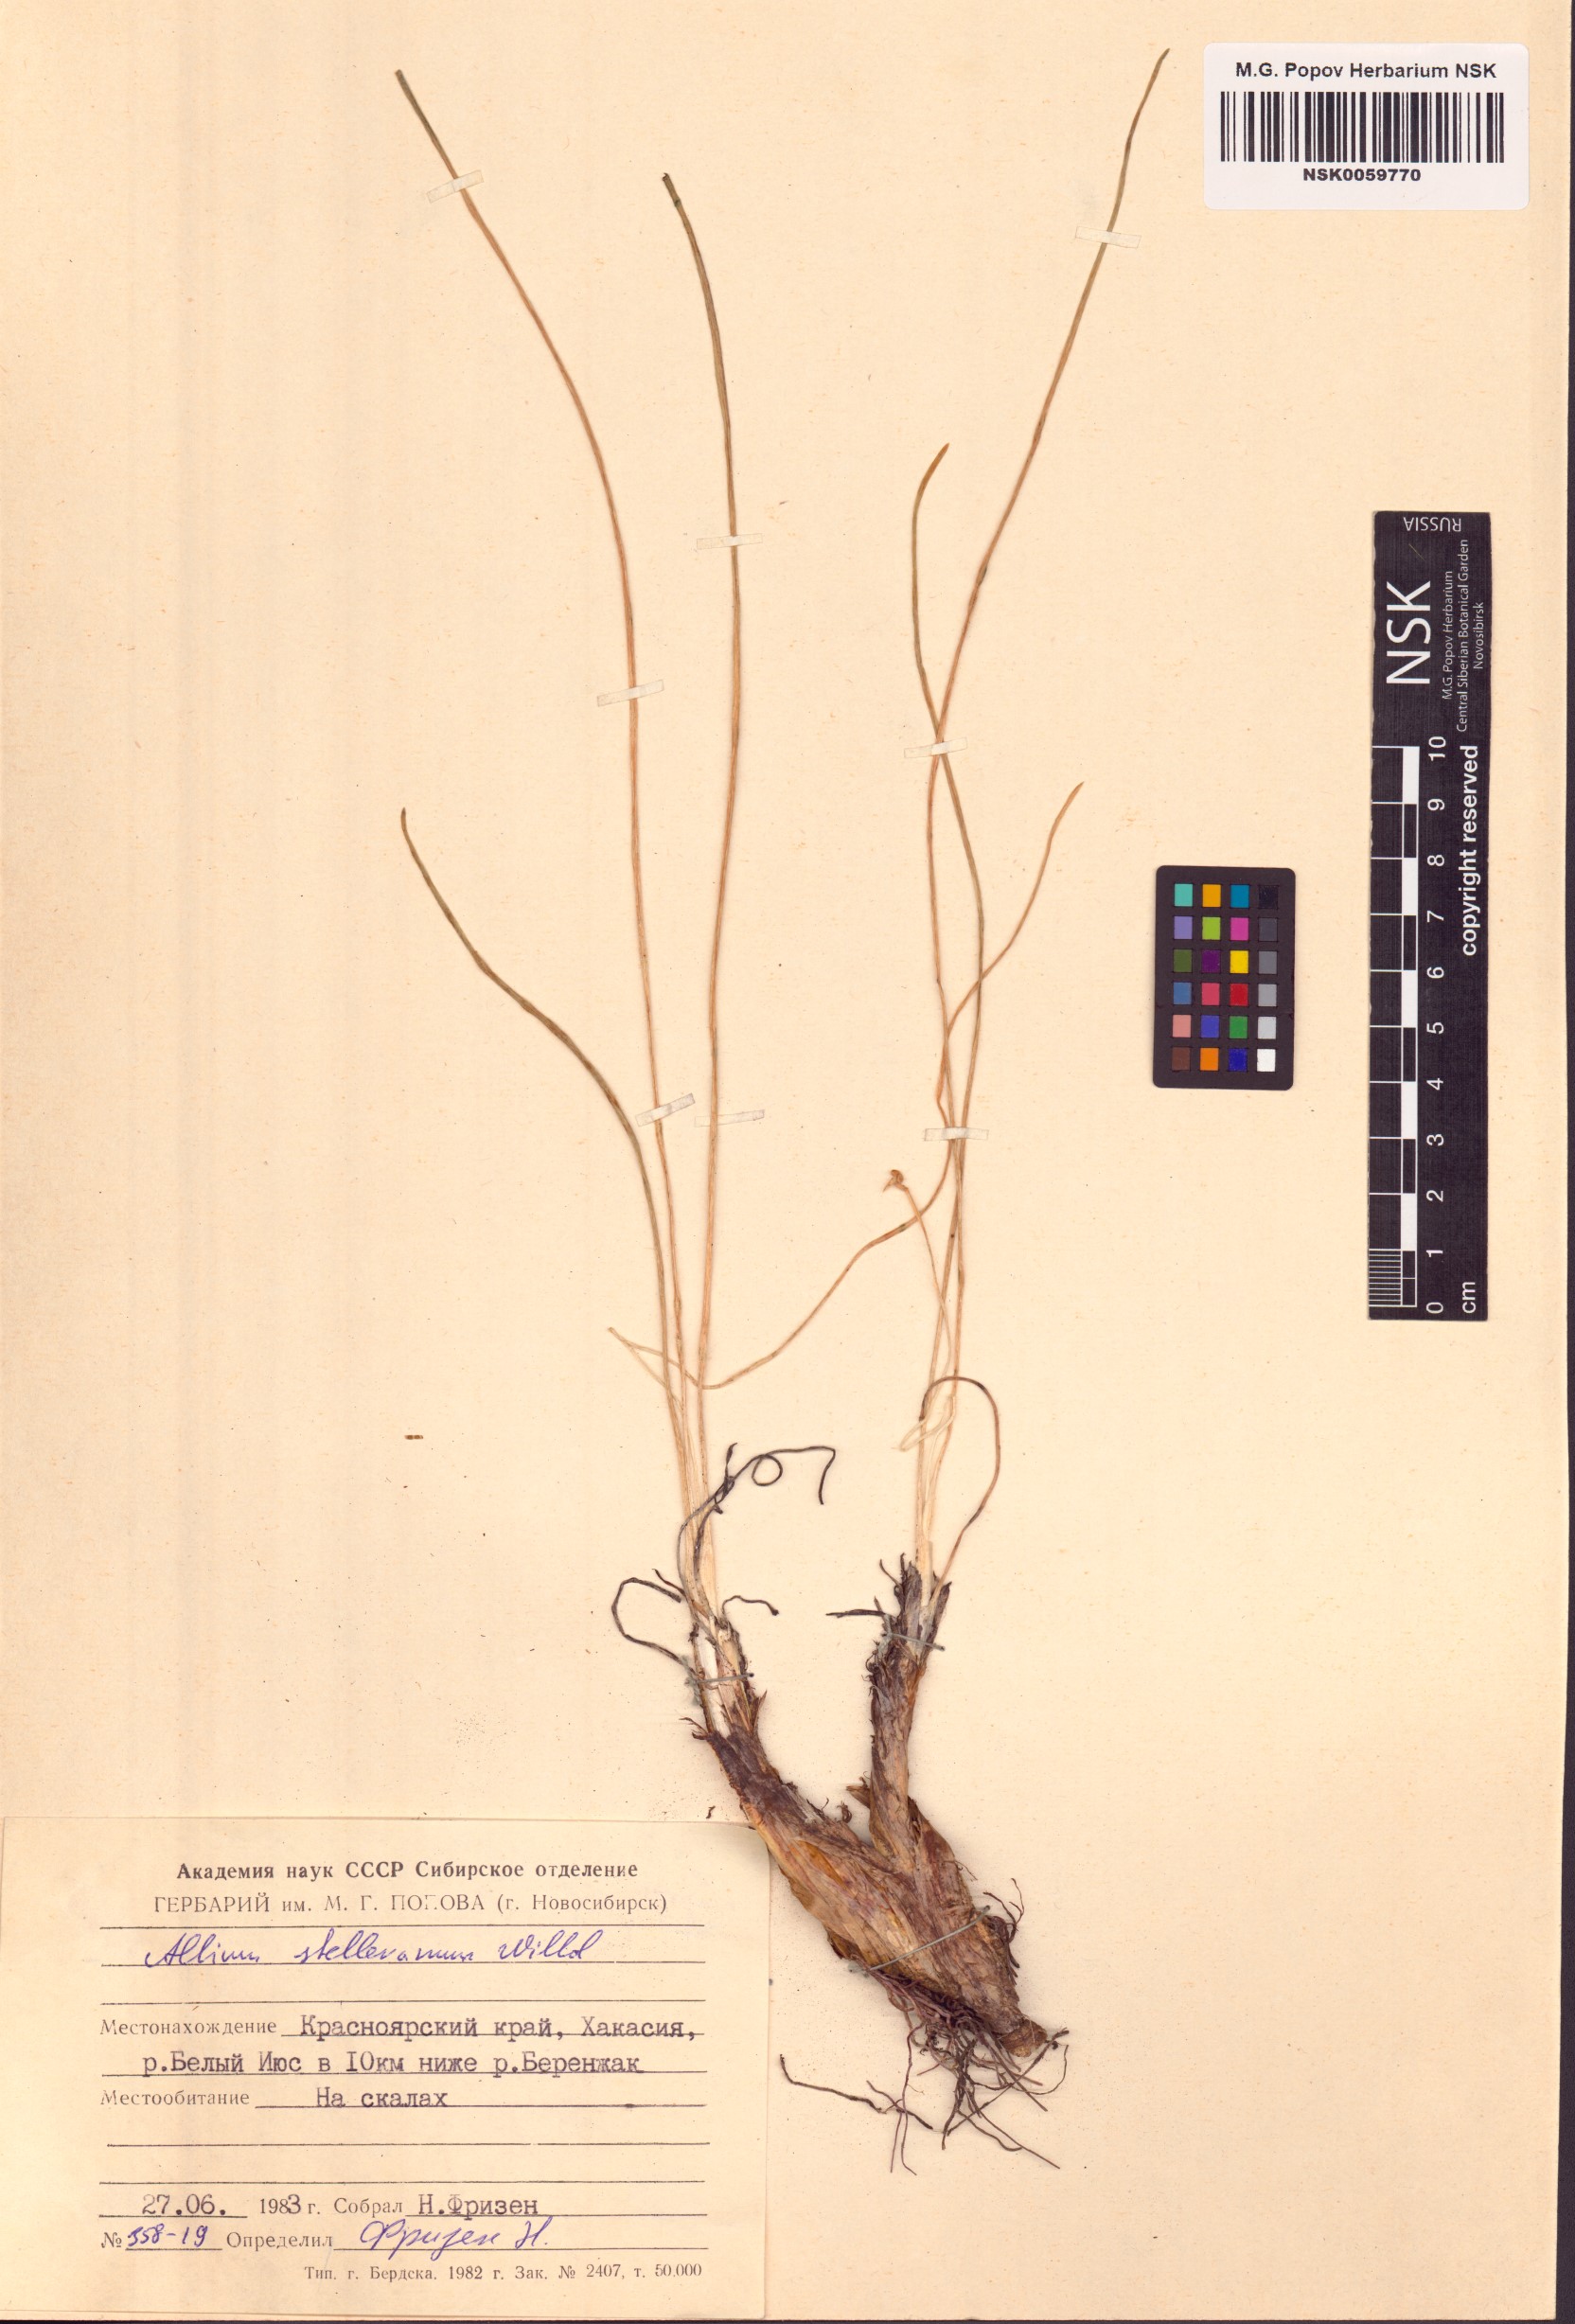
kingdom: Plantae
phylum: Tracheophyta
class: Liliopsida
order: Asparagales
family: Amaryllidaceae
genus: Allium
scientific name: Allium stellerianum
